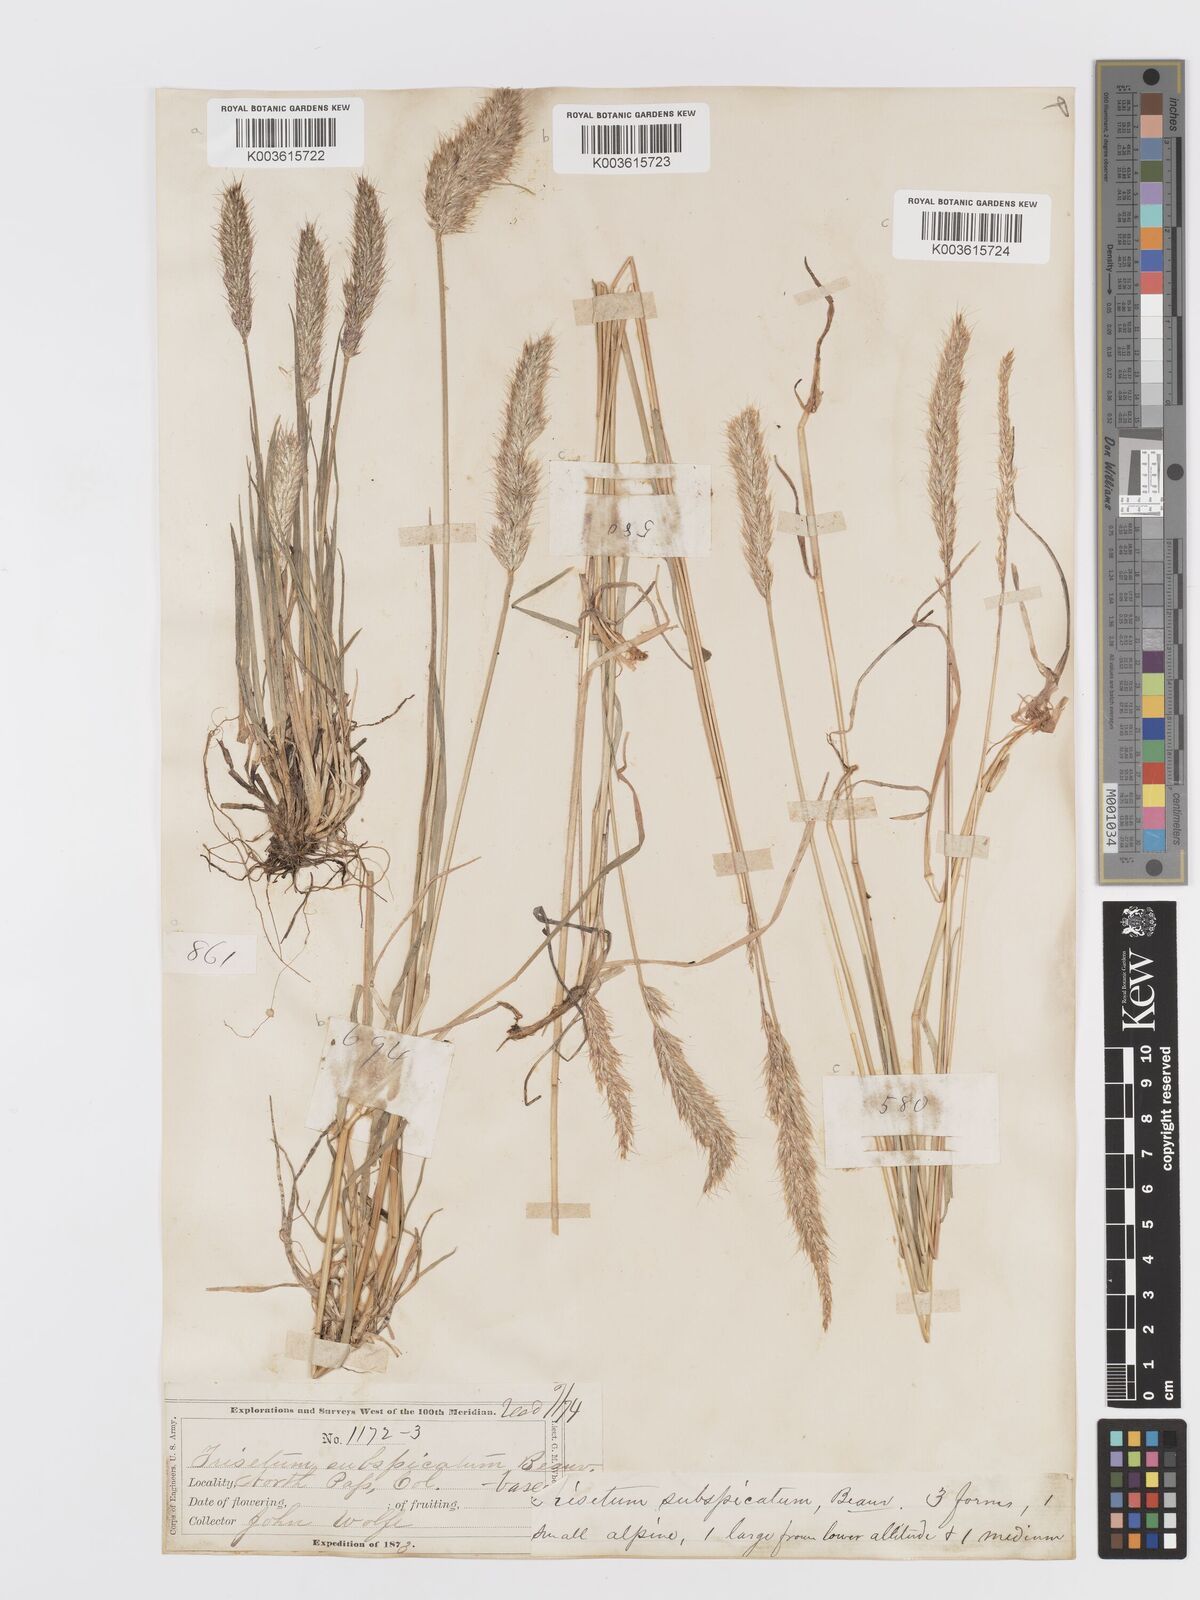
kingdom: Plantae
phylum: Tracheophyta
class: Liliopsida
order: Poales
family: Poaceae
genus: Koeleria
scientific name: Koeleria spicata
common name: Mountain trisetum
